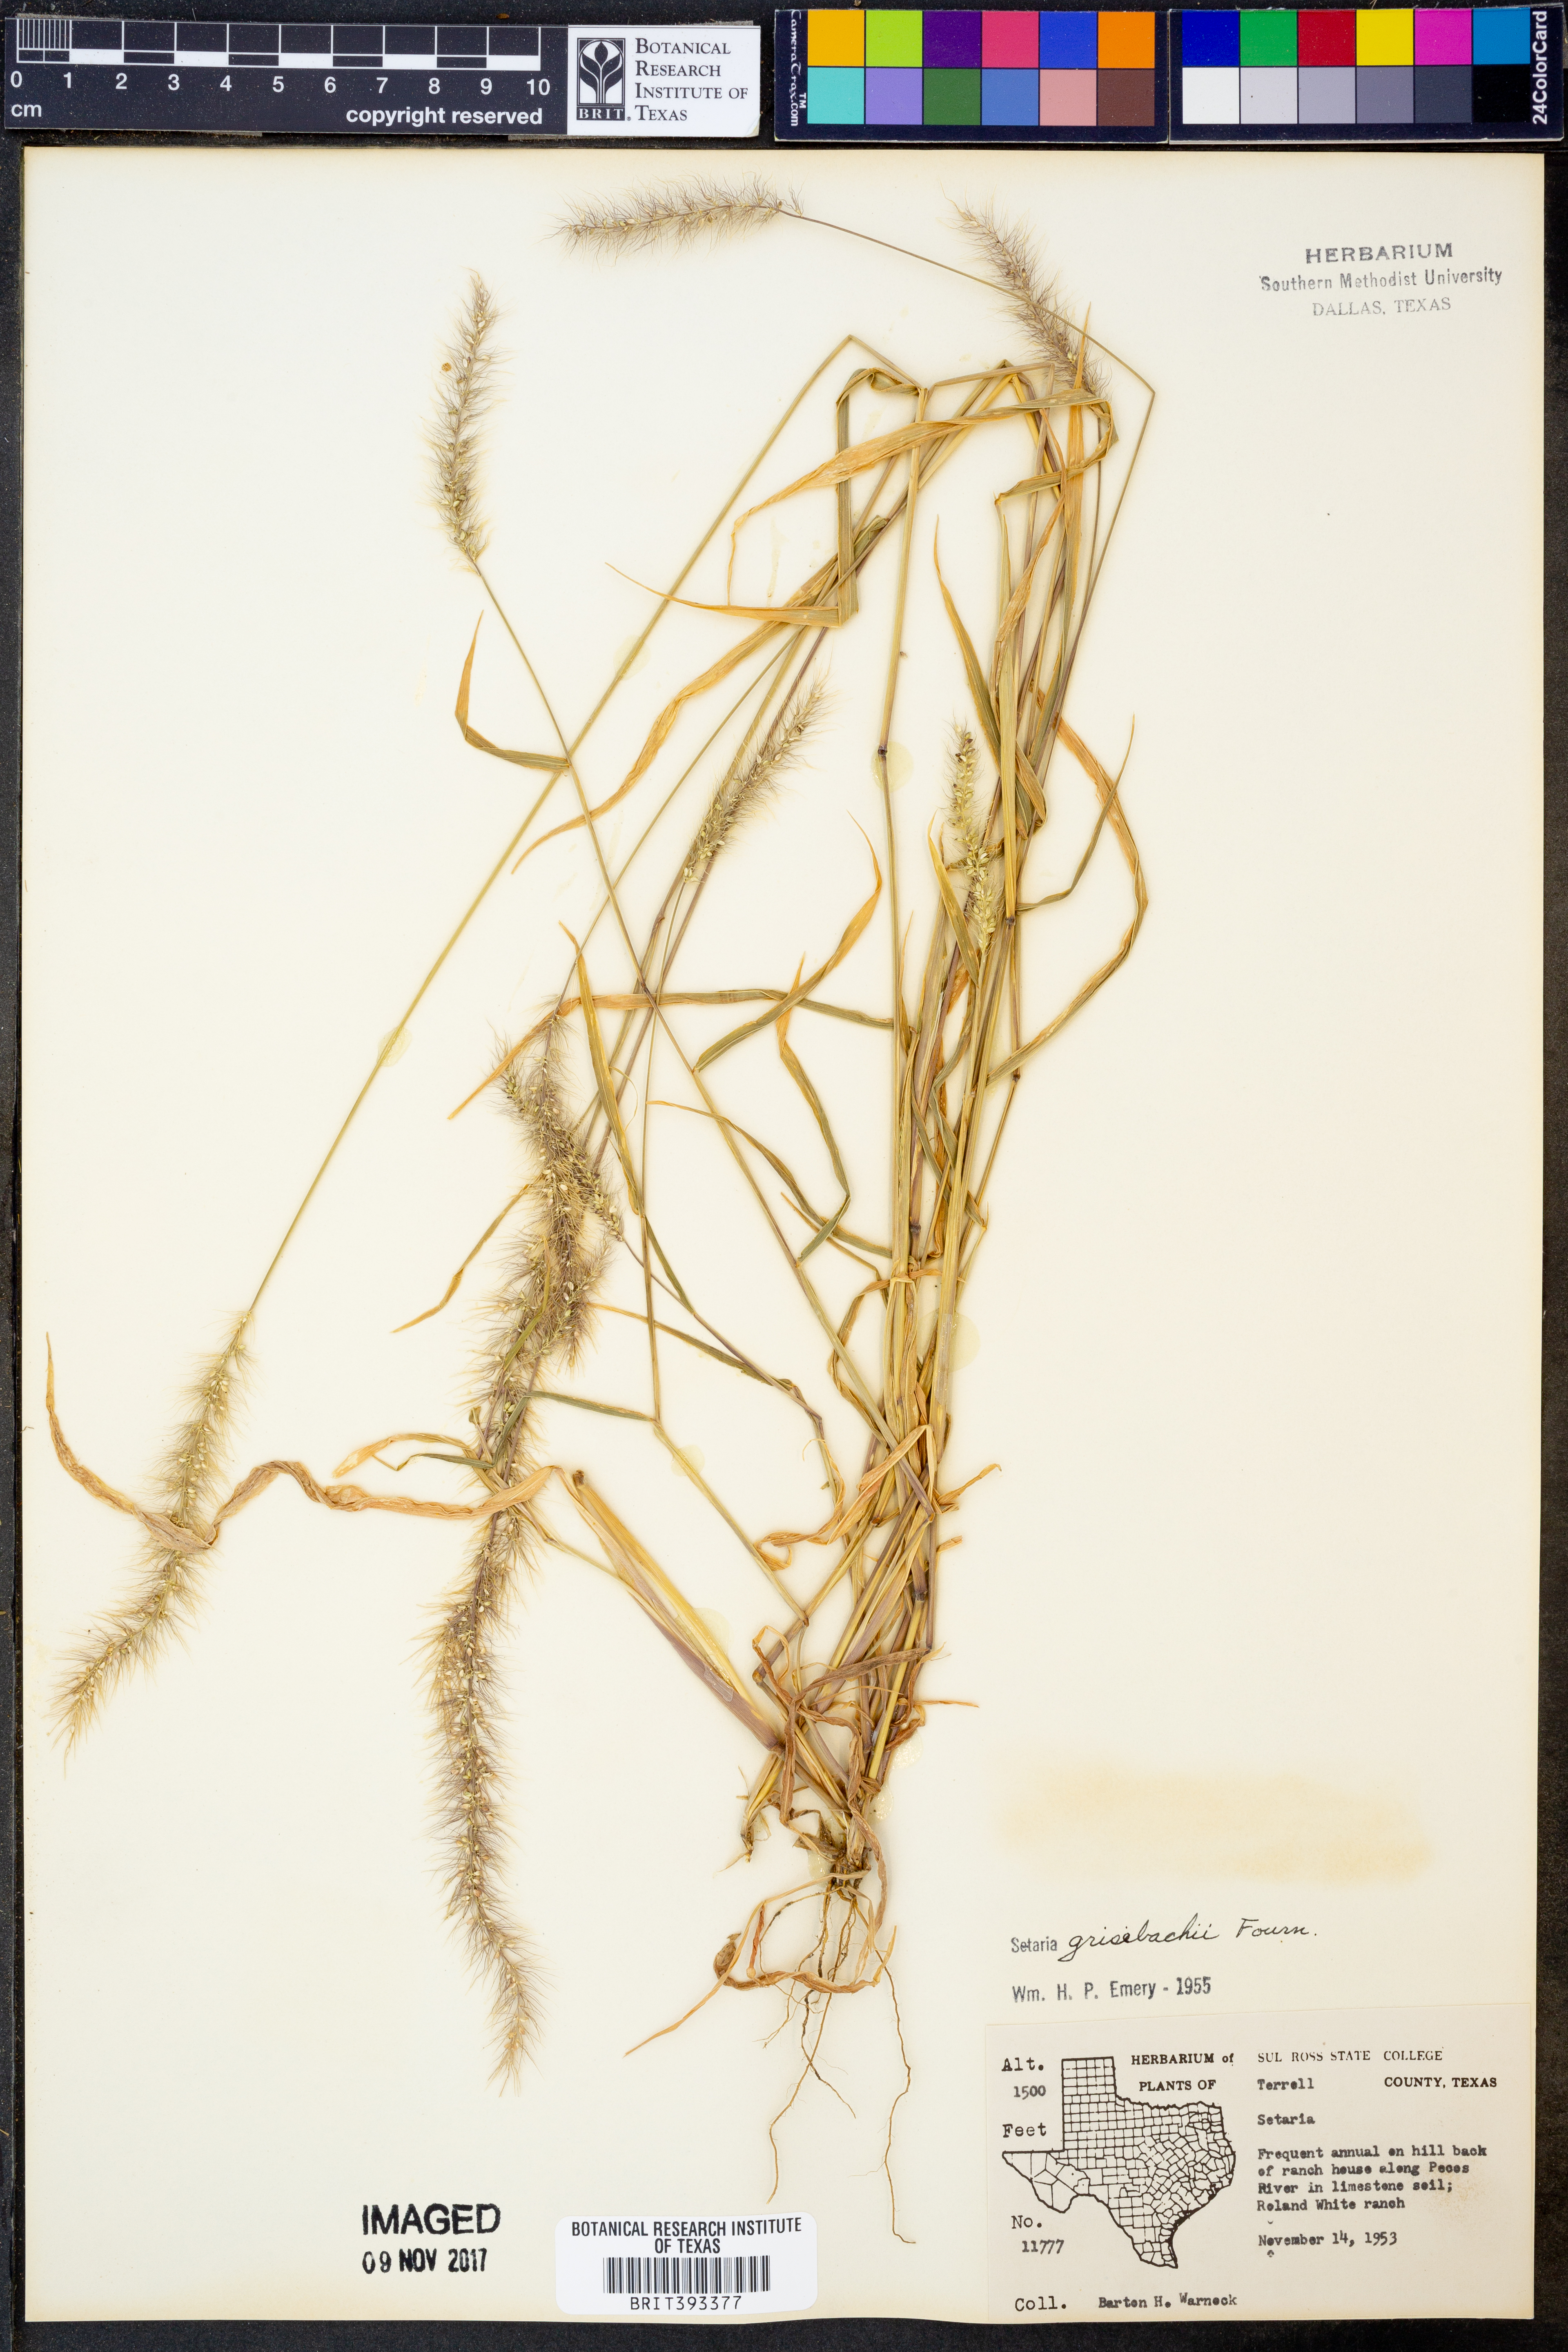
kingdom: Plantae
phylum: Tracheophyta
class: Liliopsida
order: Poales
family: Poaceae
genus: Setaria
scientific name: Setaria grisebachii
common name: Grisebach's bristle grass
